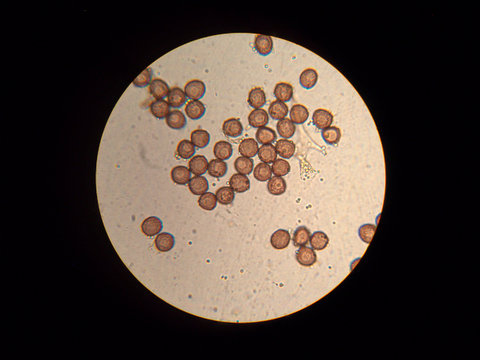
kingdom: Protozoa
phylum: Mycetozoa
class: Myxomycetes
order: Physarales
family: Physaraceae
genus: Fuligo
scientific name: Fuligo muscorum
